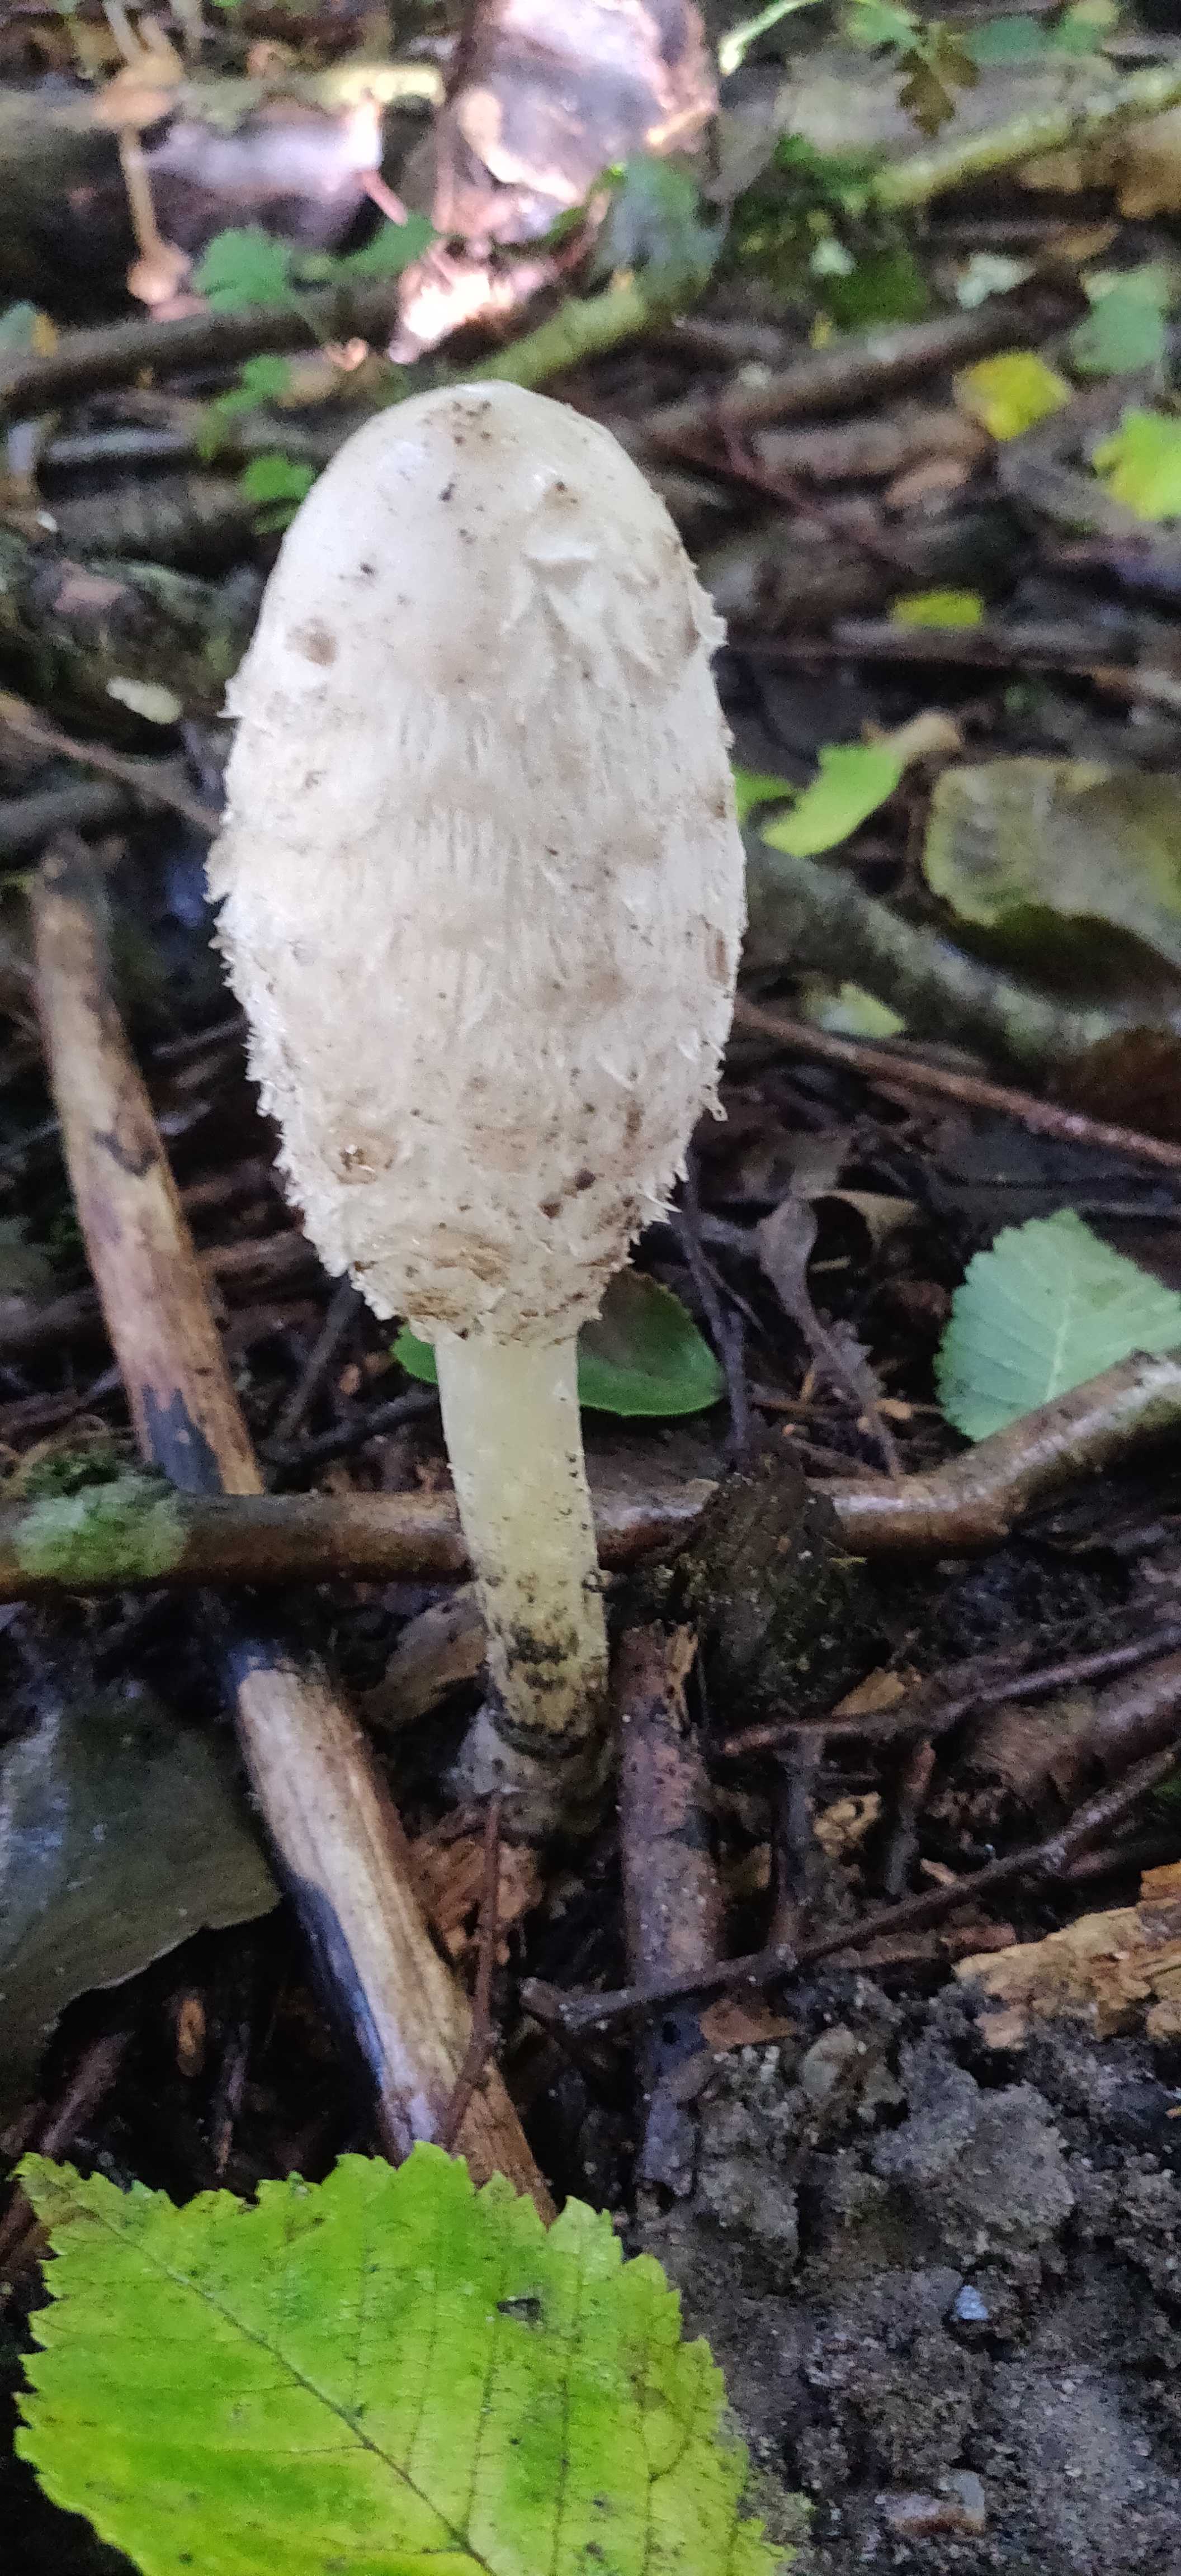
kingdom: Fungi
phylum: Basidiomycota
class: Agaricomycetes
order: Agaricales
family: Agaricaceae
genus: Coprinus
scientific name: Coprinus comatus
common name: stor parykhat
